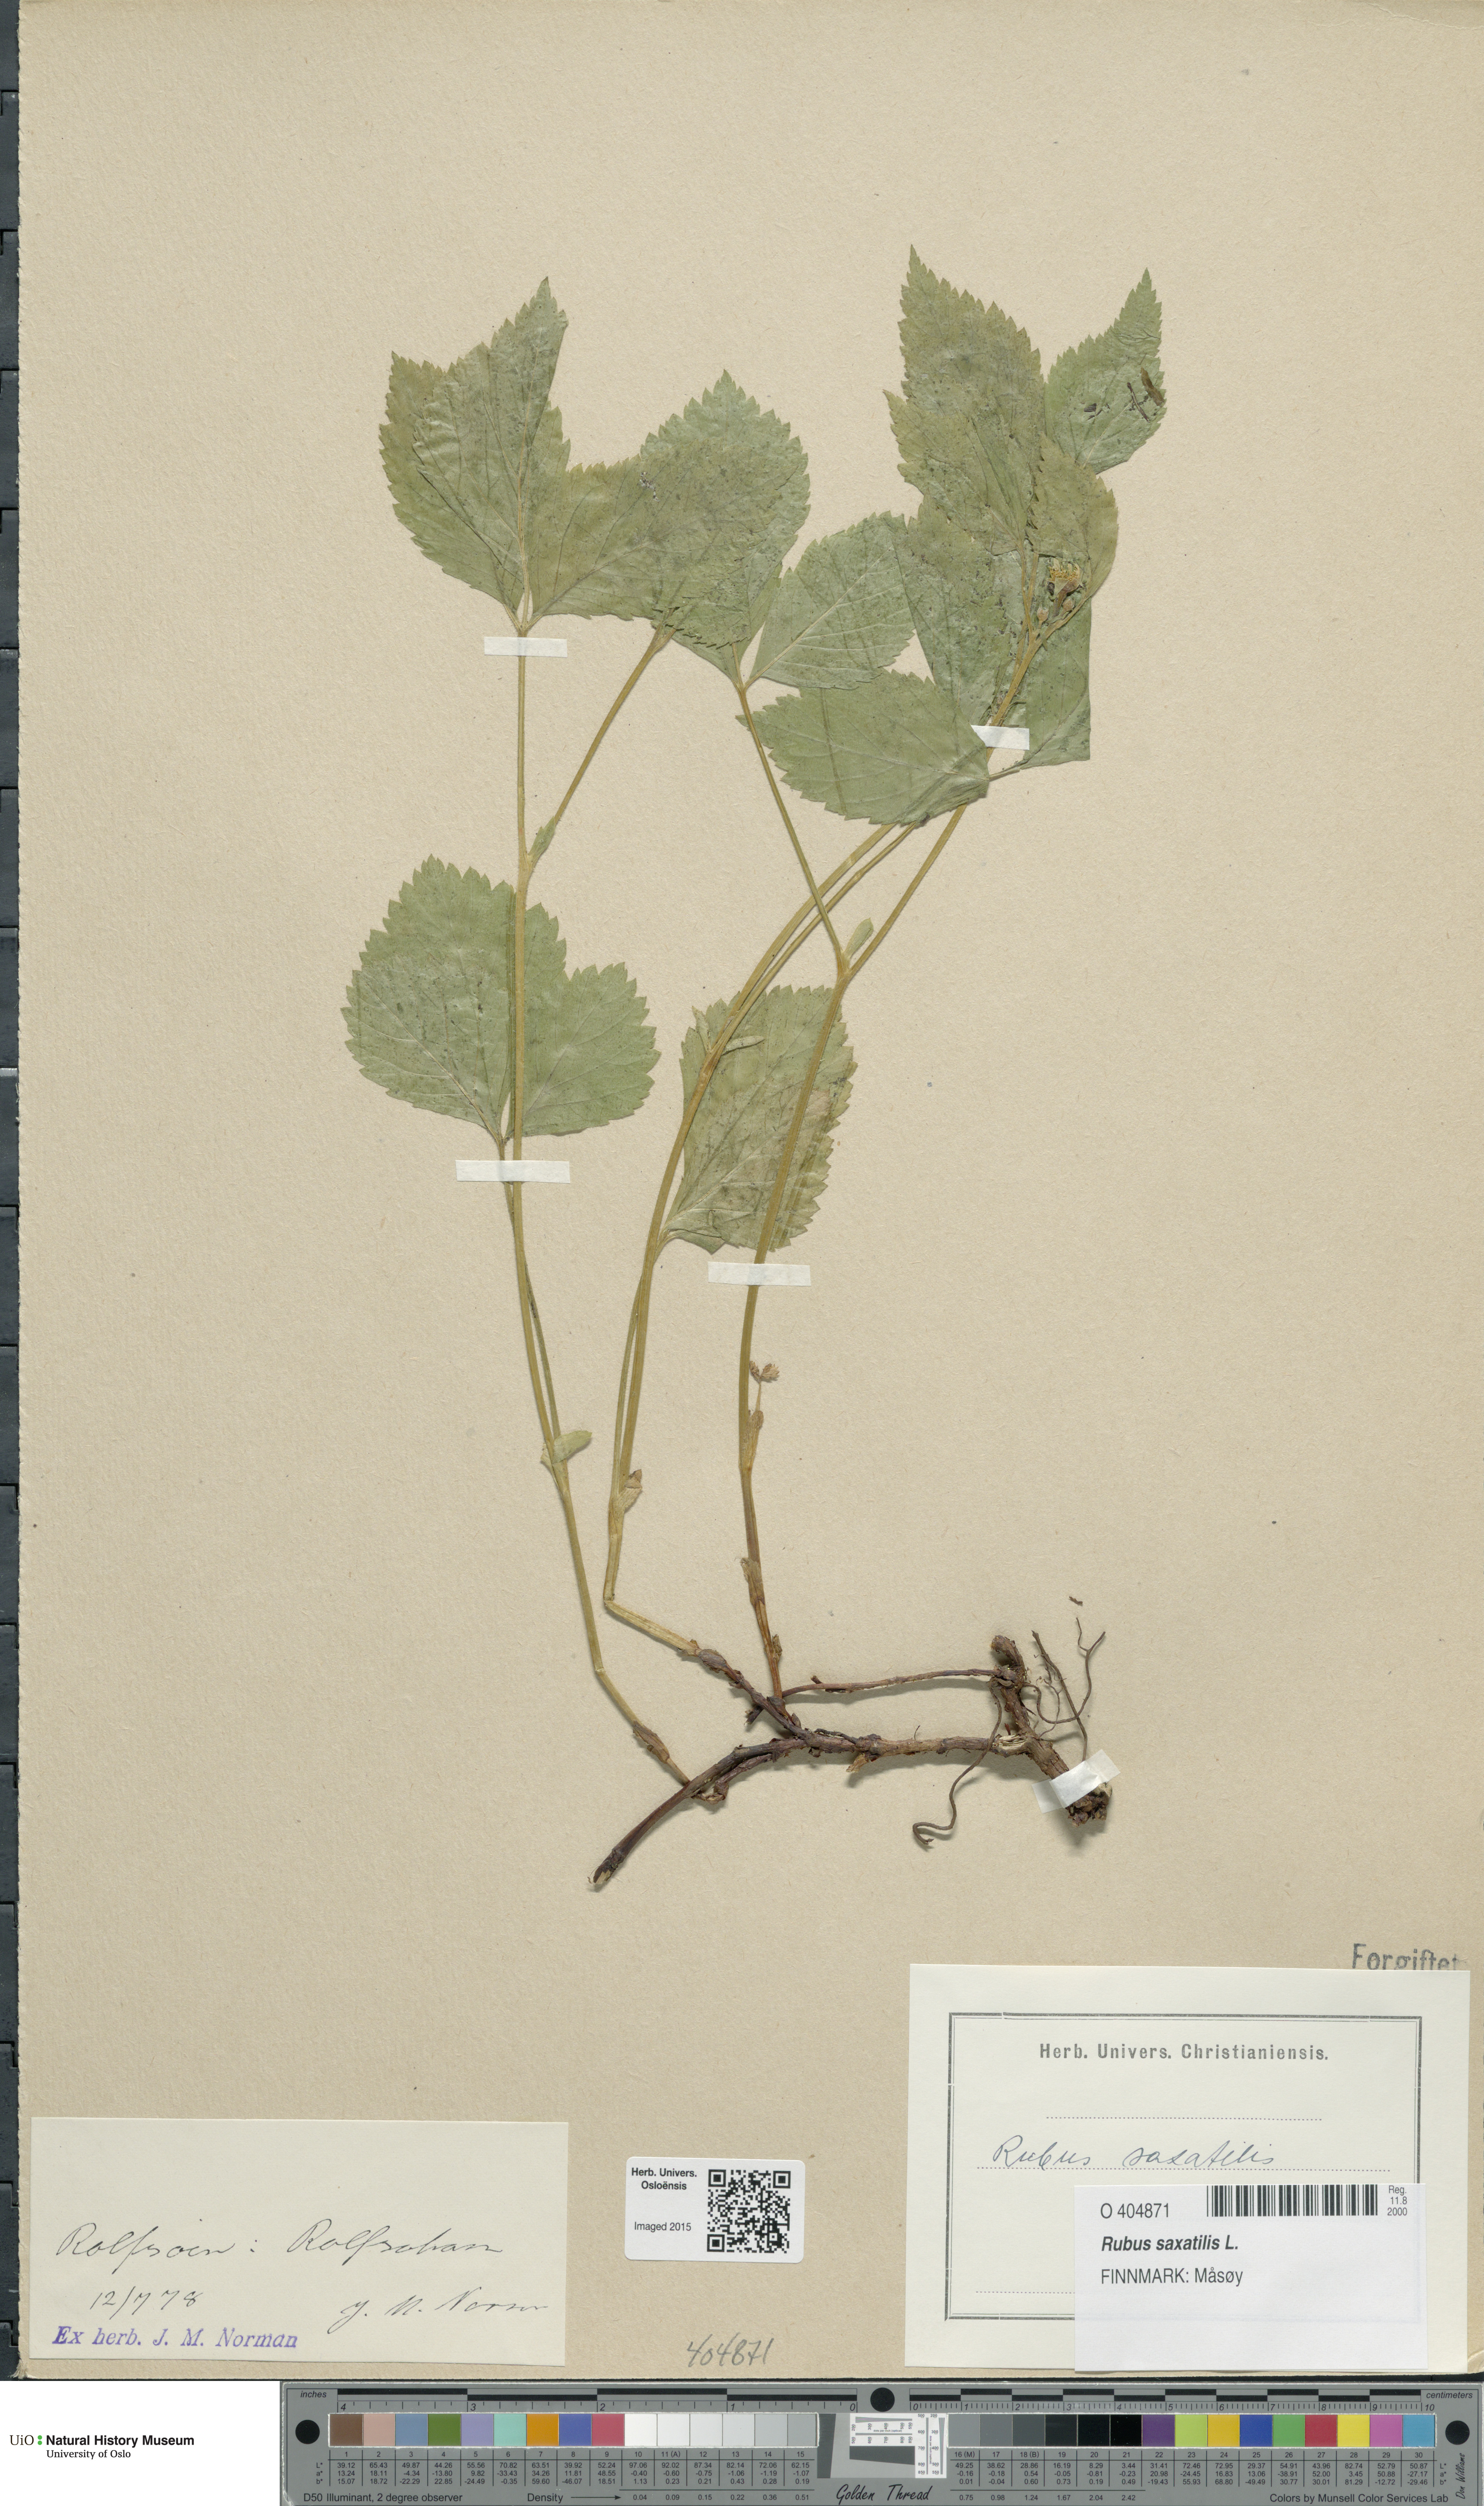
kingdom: Plantae
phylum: Tracheophyta
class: Magnoliopsida
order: Rosales
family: Rosaceae
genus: Rubus
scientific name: Rubus saxatilis
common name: Stone bramble
